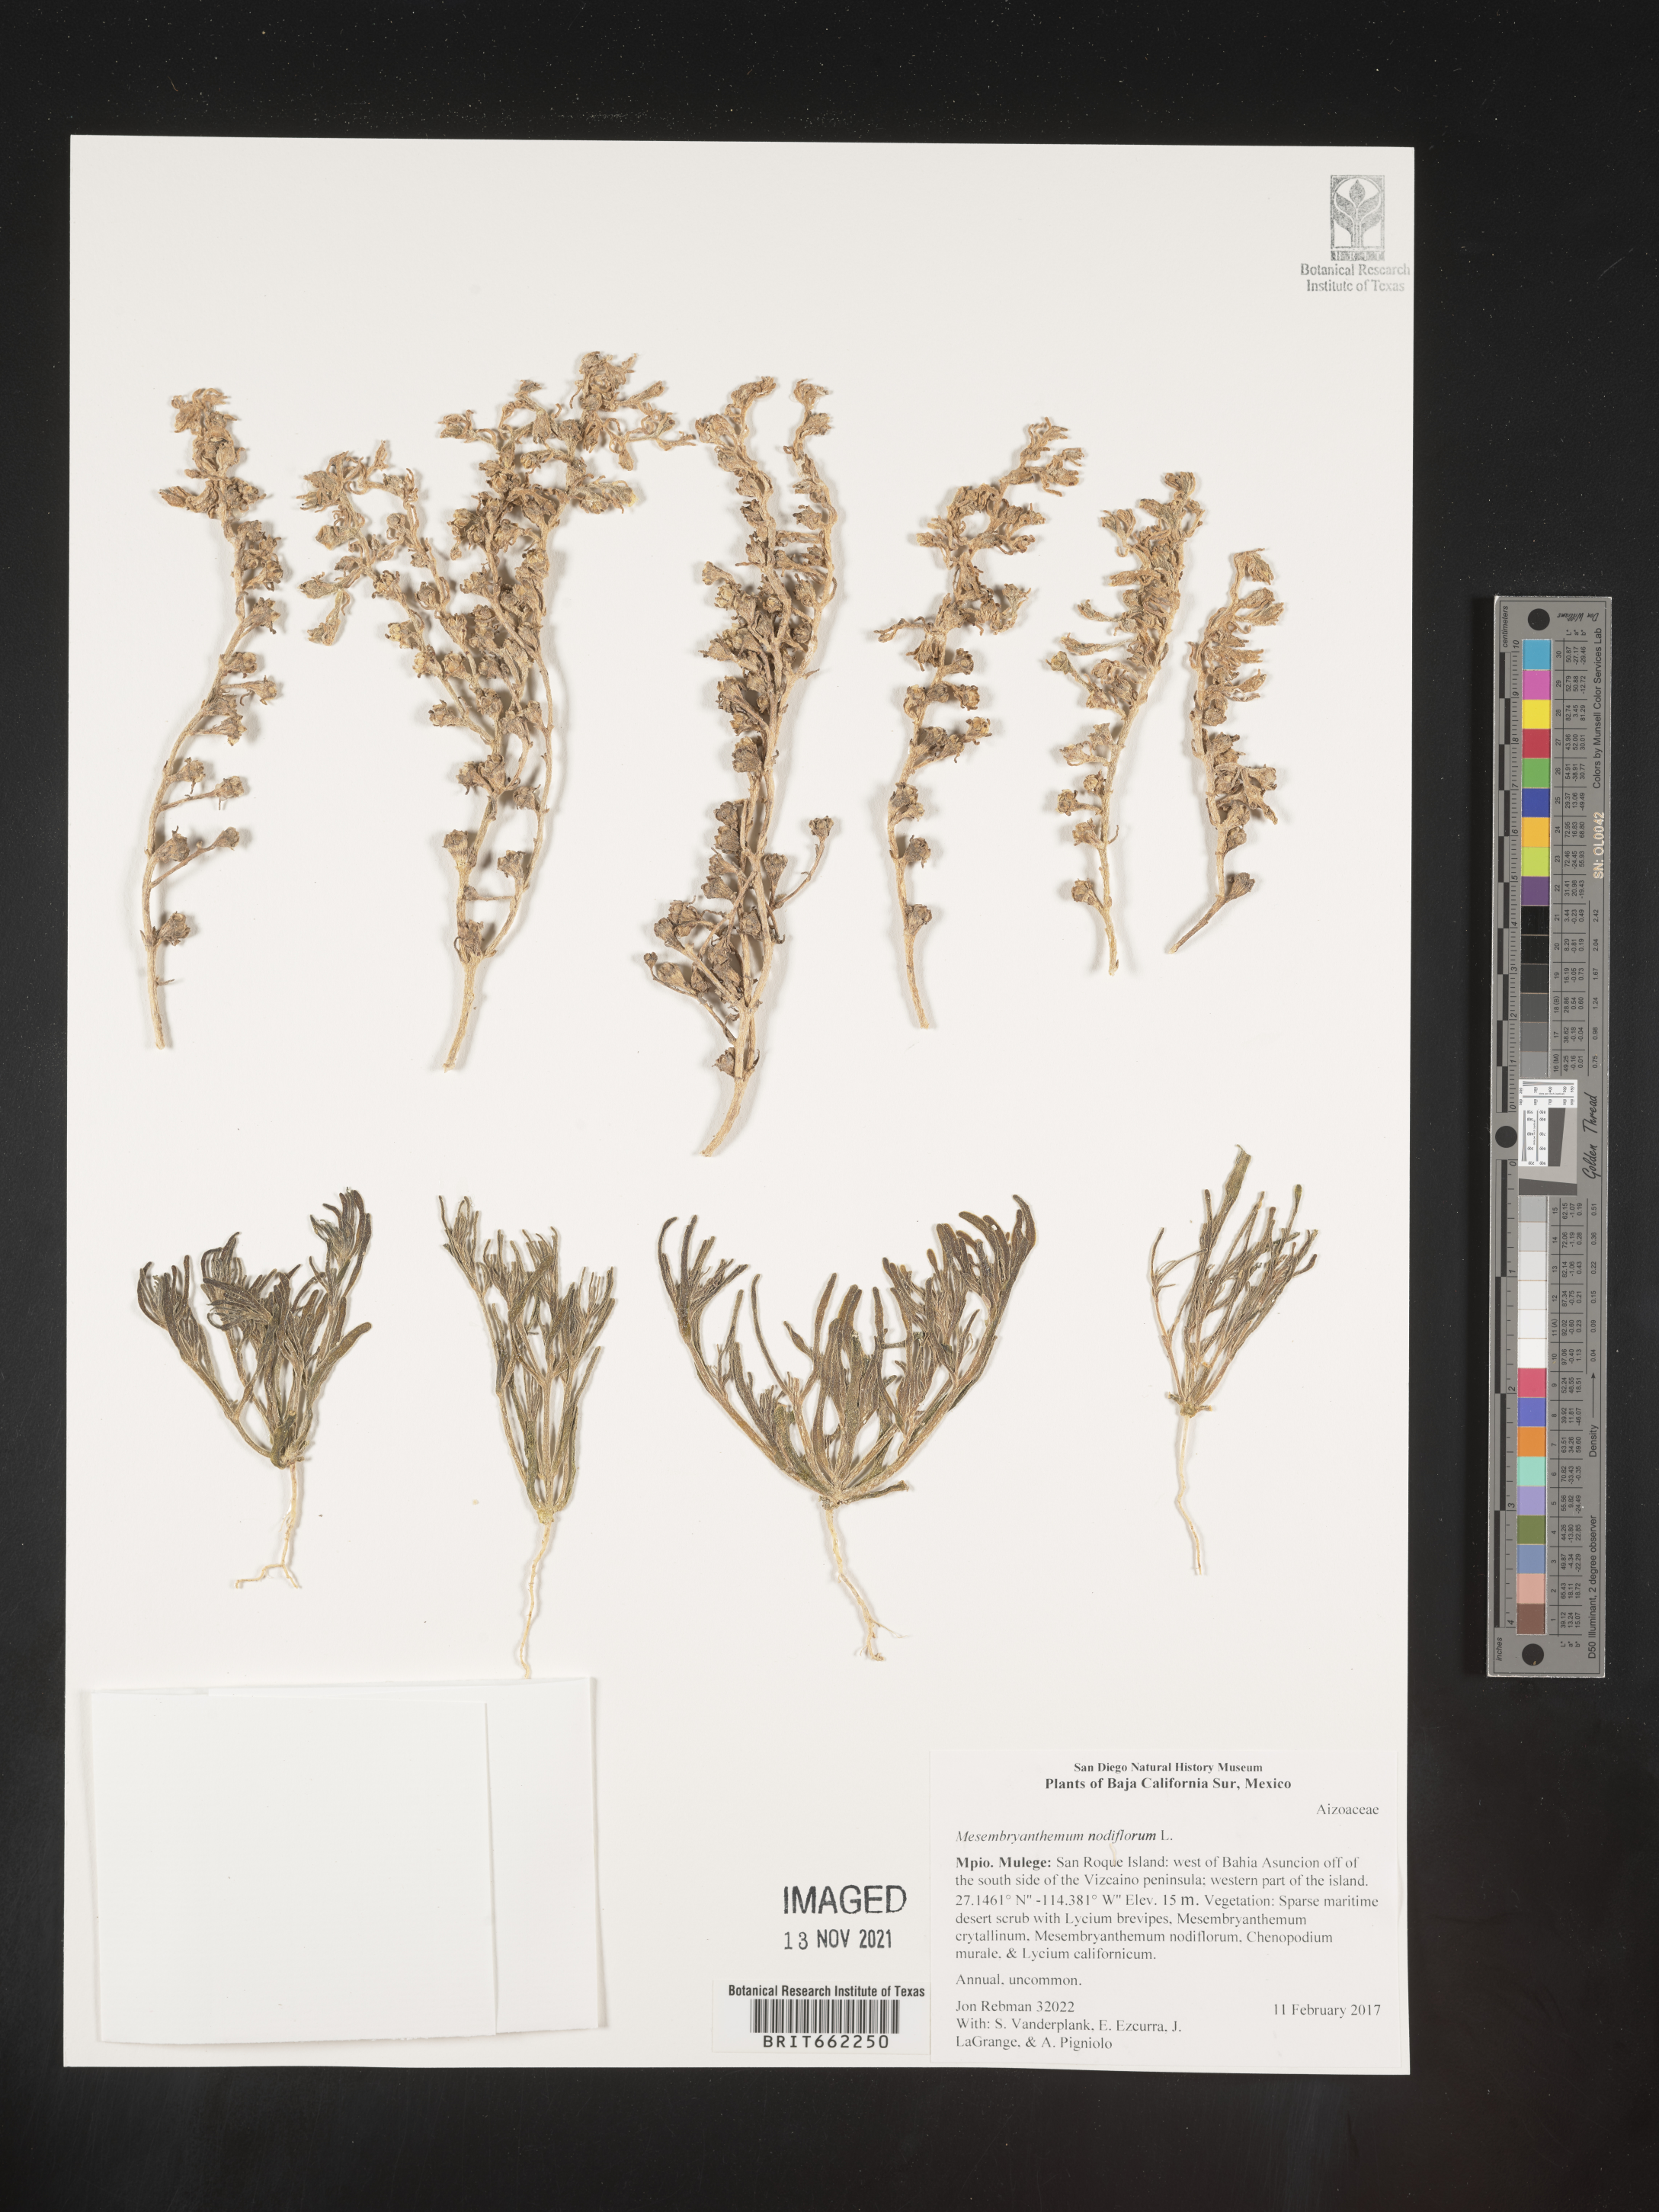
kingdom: Plantae
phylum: Tracheophyta
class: Magnoliopsida
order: Caryophyllales
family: Aizoaceae
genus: Mesembryanthemum
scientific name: Mesembryanthemum
